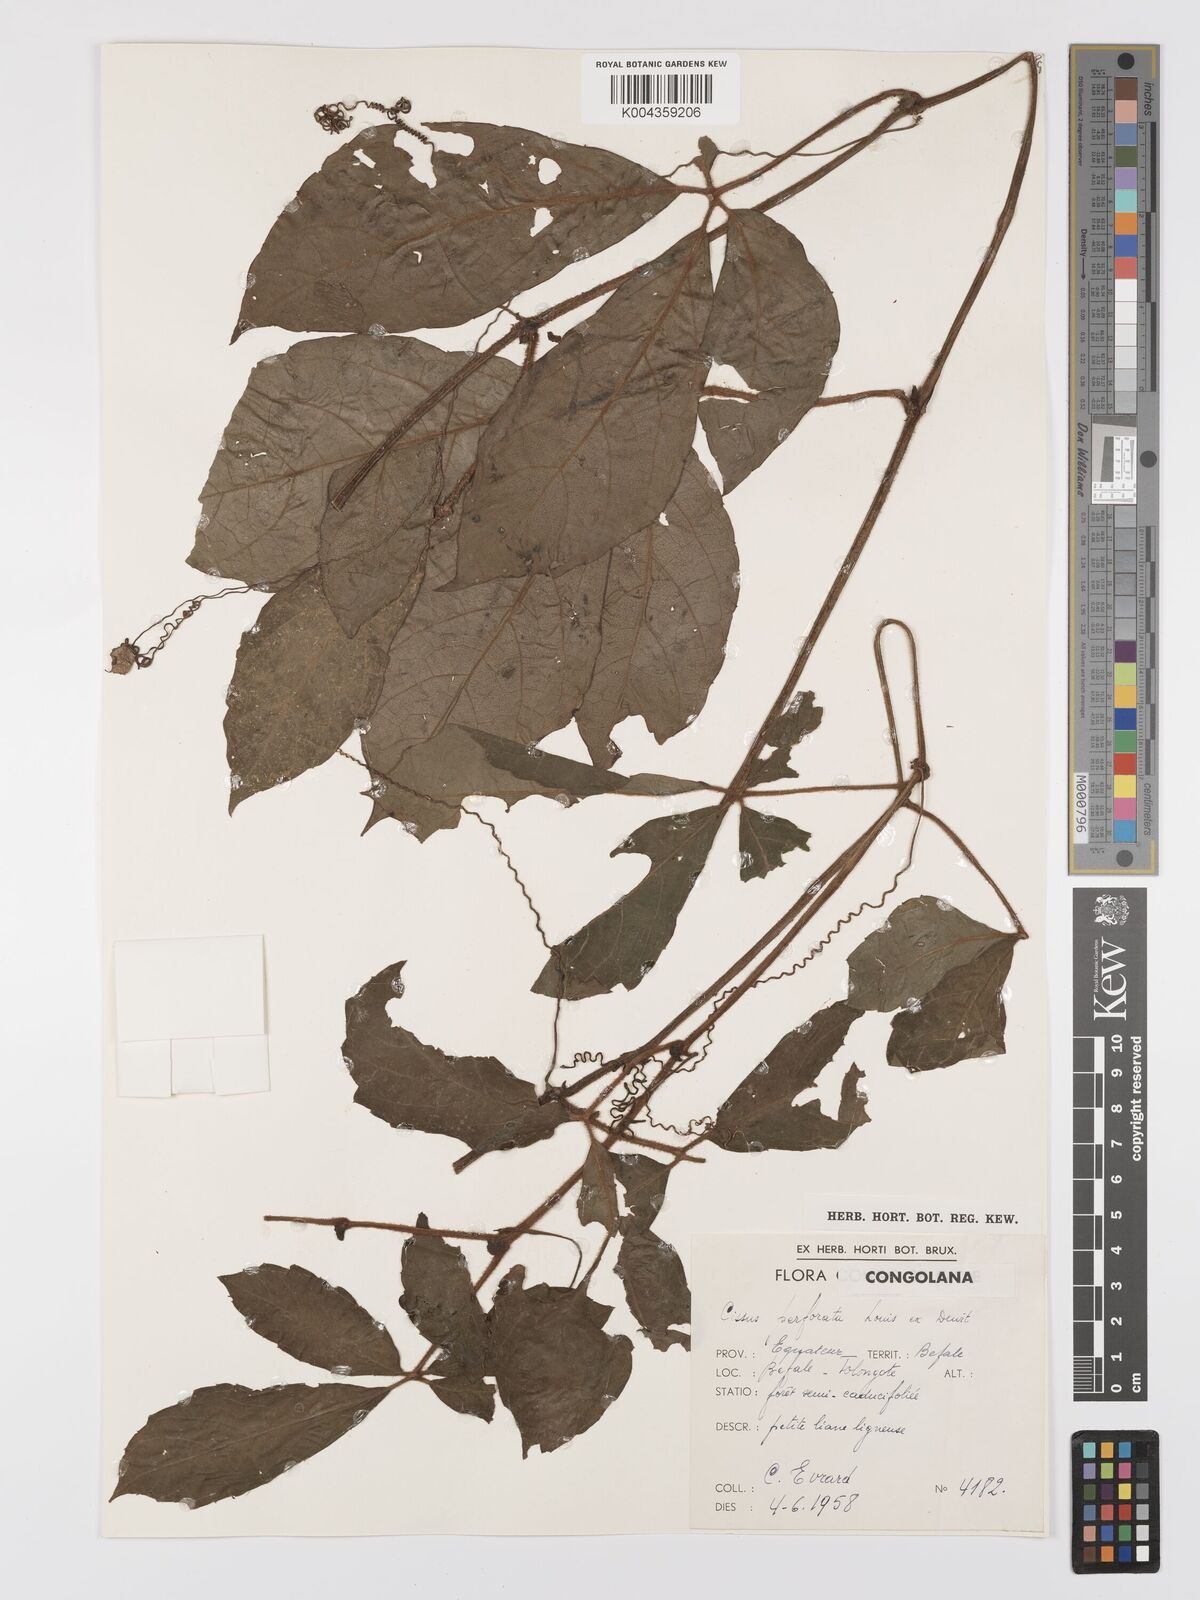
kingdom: Plantae
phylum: Tracheophyta
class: Magnoliopsida
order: Vitales
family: Vitaceae
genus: Cyphostemma
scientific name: Cyphostemma perforatum
